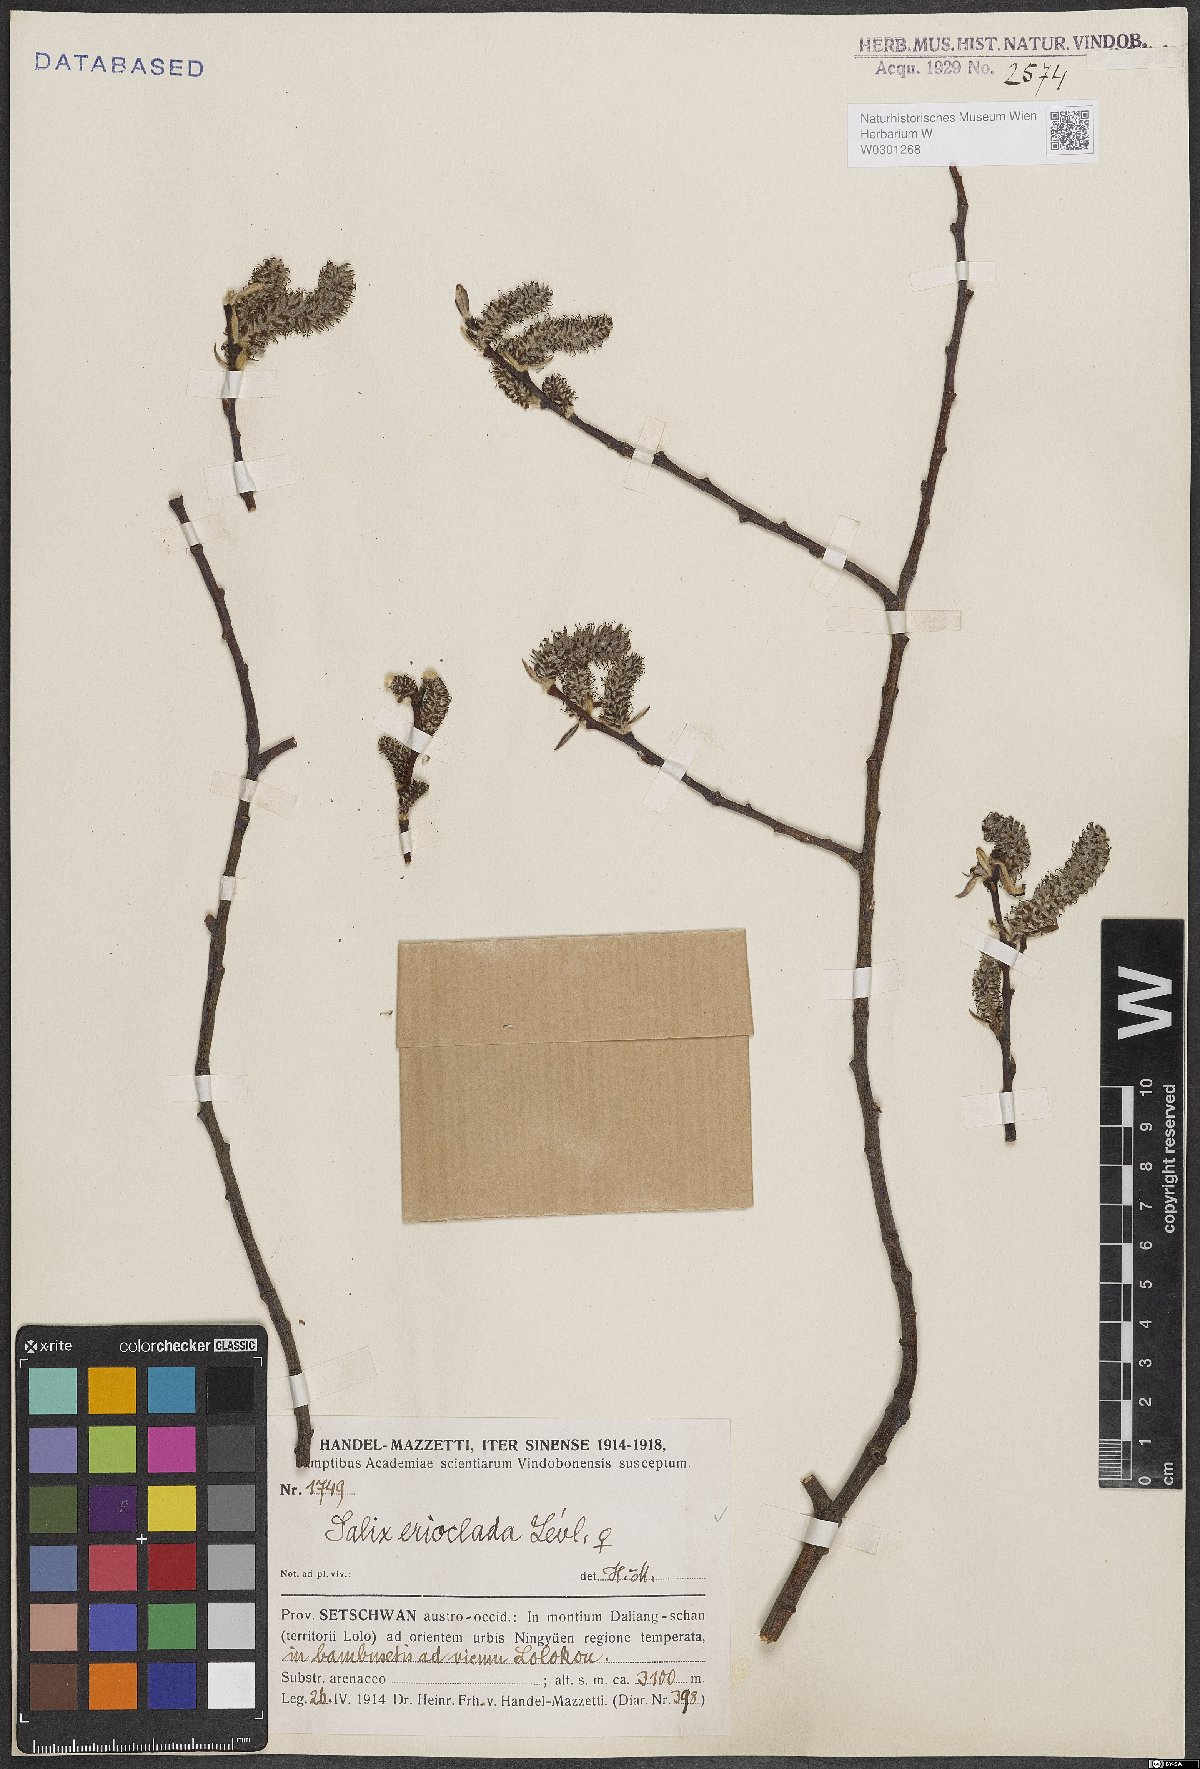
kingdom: Plantae
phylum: Tracheophyta
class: Magnoliopsida
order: Malpighiales
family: Salicaceae
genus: Salix
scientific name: Salix erioclada
